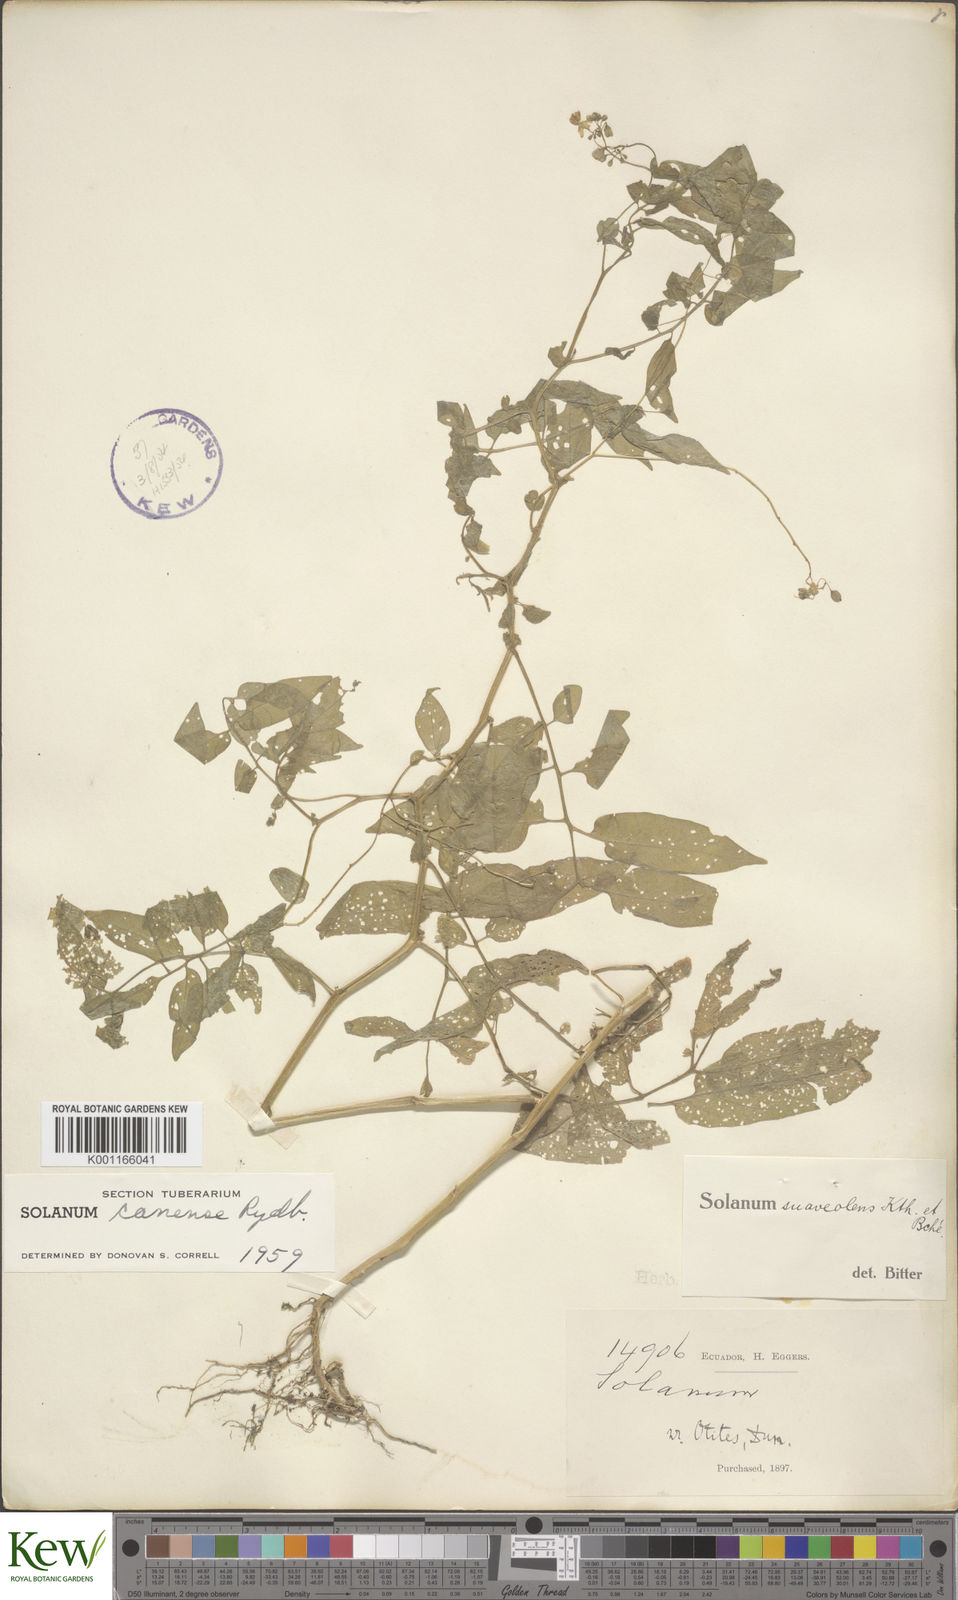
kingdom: Plantae
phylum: Tracheophyta
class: Magnoliopsida
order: Solanales
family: Solanaceae
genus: Solanum
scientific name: Solanum suaveolens
